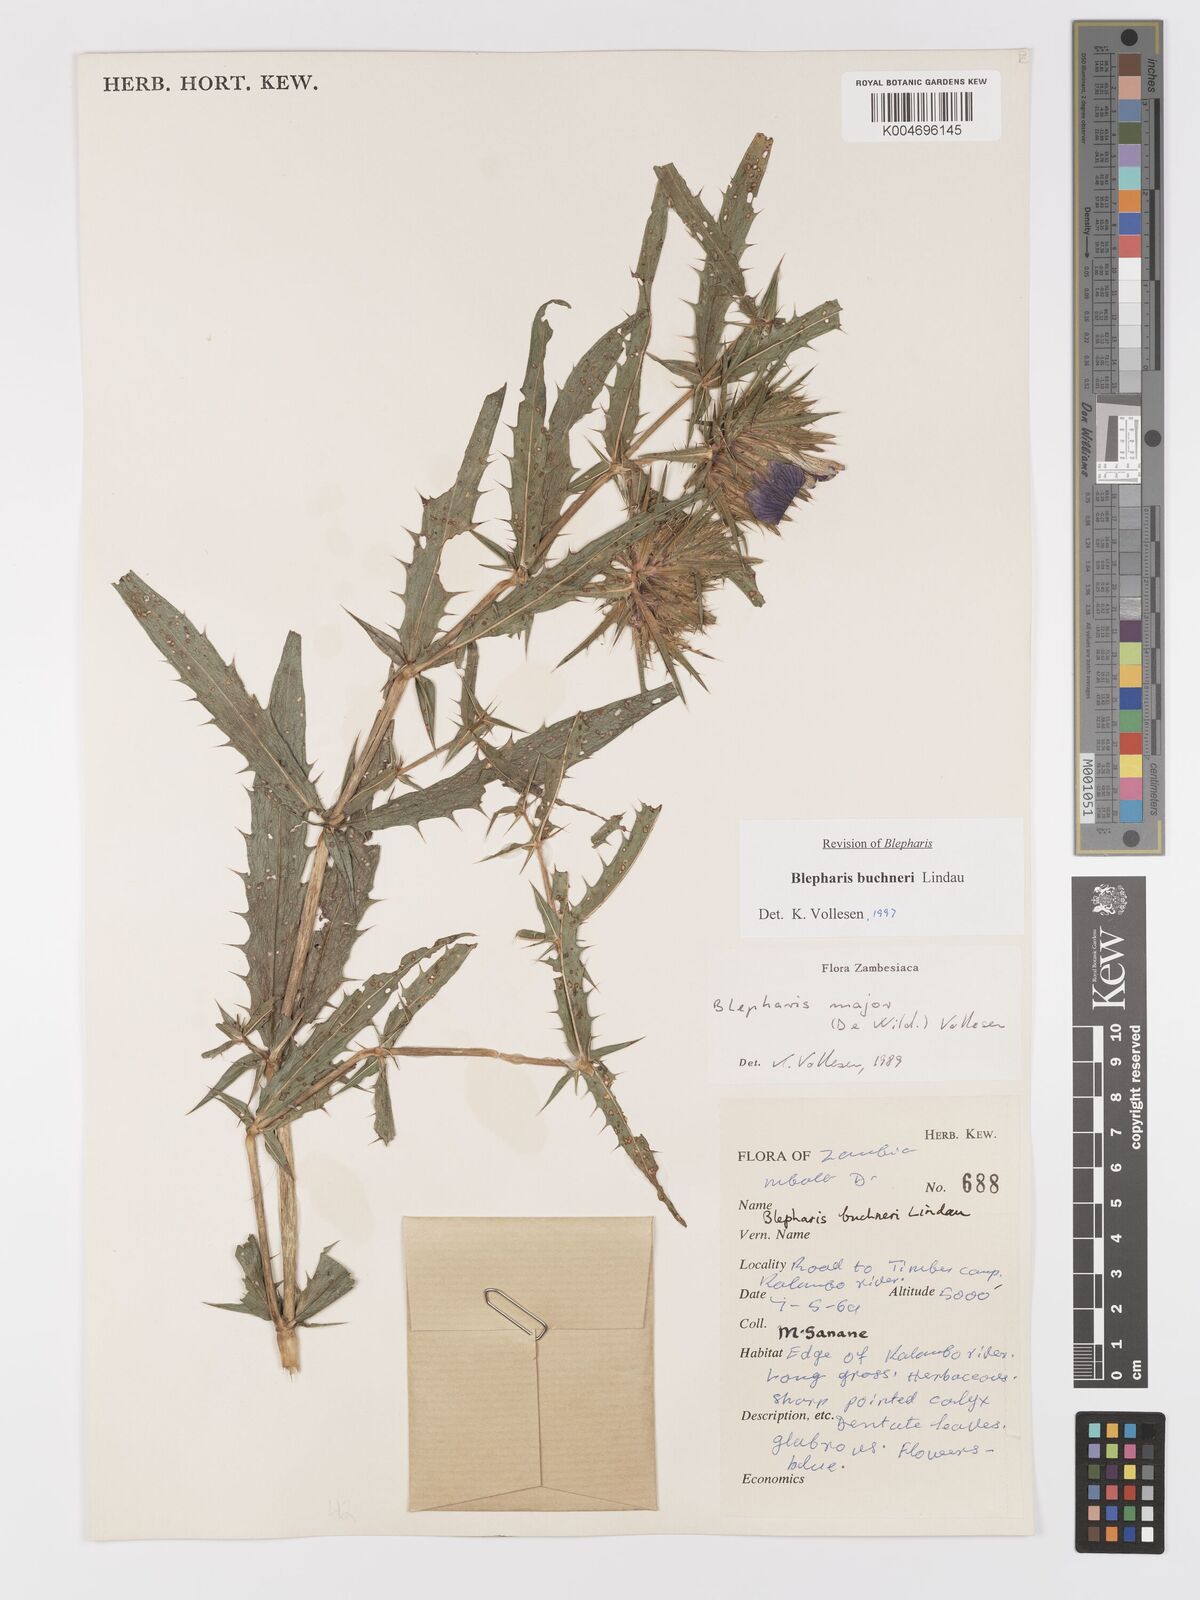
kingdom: Plantae
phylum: Tracheophyta
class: Magnoliopsida
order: Lamiales
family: Acanthaceae
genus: Blepharis
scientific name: Blepharis buchneri
